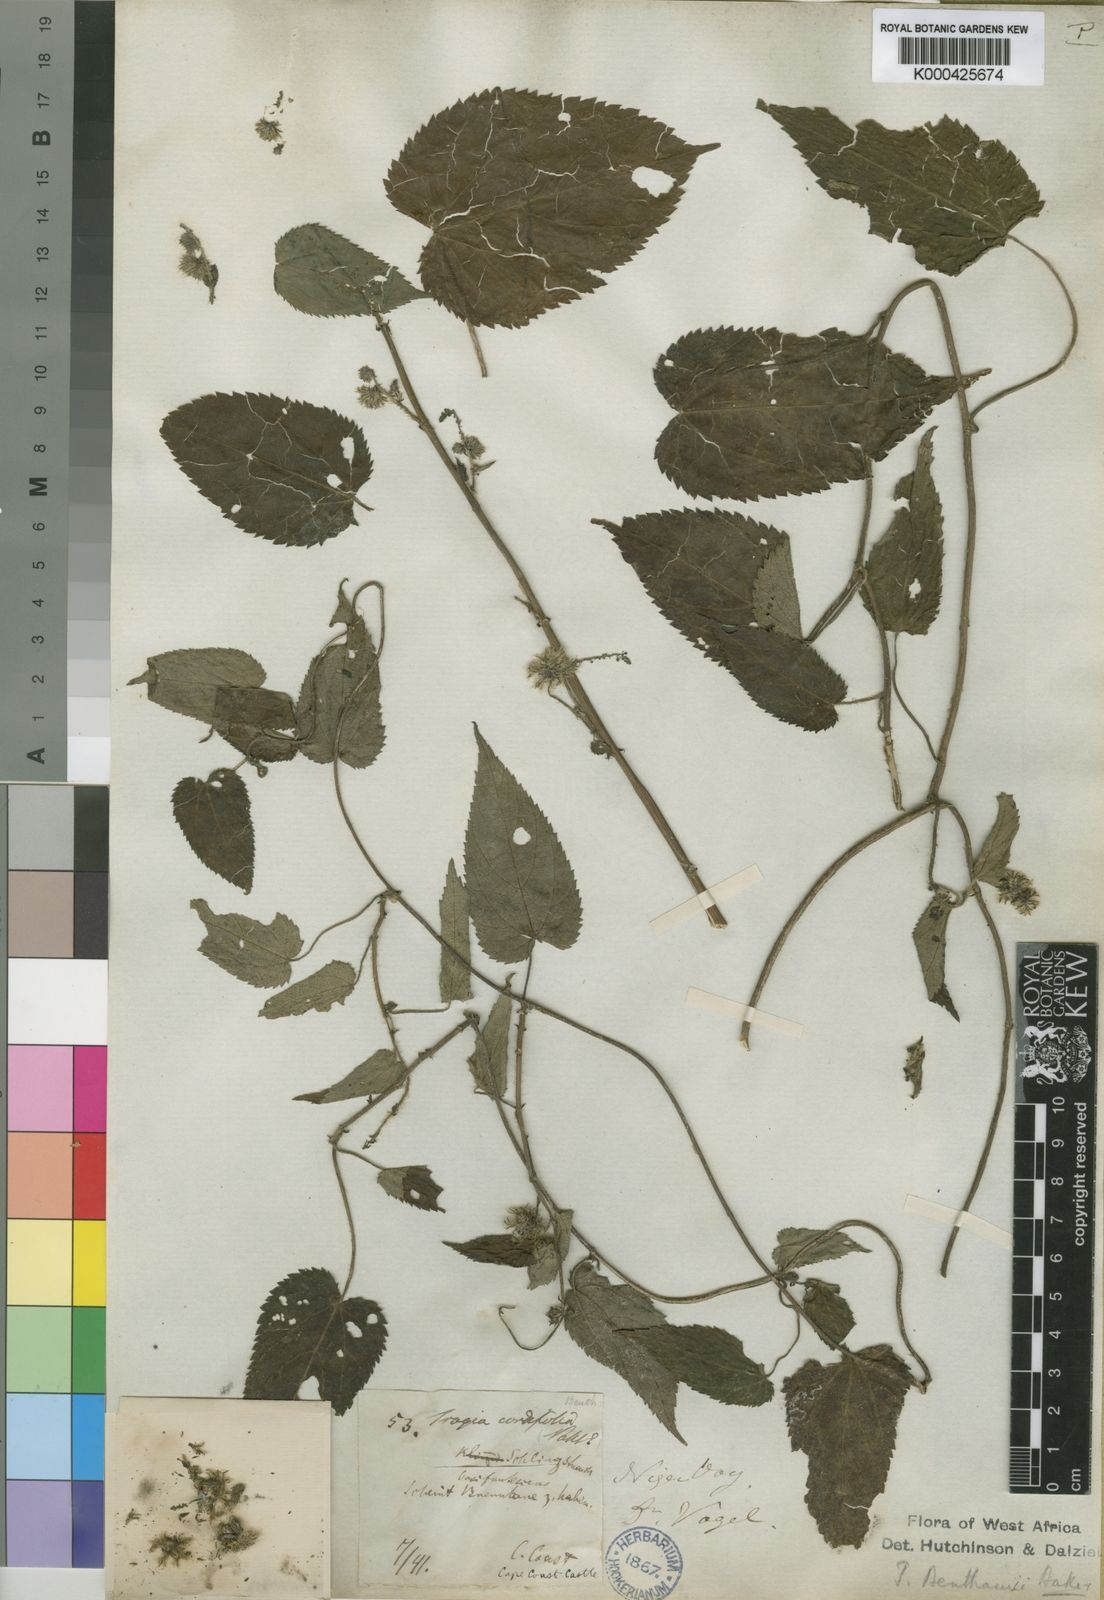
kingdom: Plantae
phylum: Tracheophyta
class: Magnoliopsida
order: Malpighiales
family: Euphorbiaceae
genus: Tragia
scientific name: Tragia benthamii
